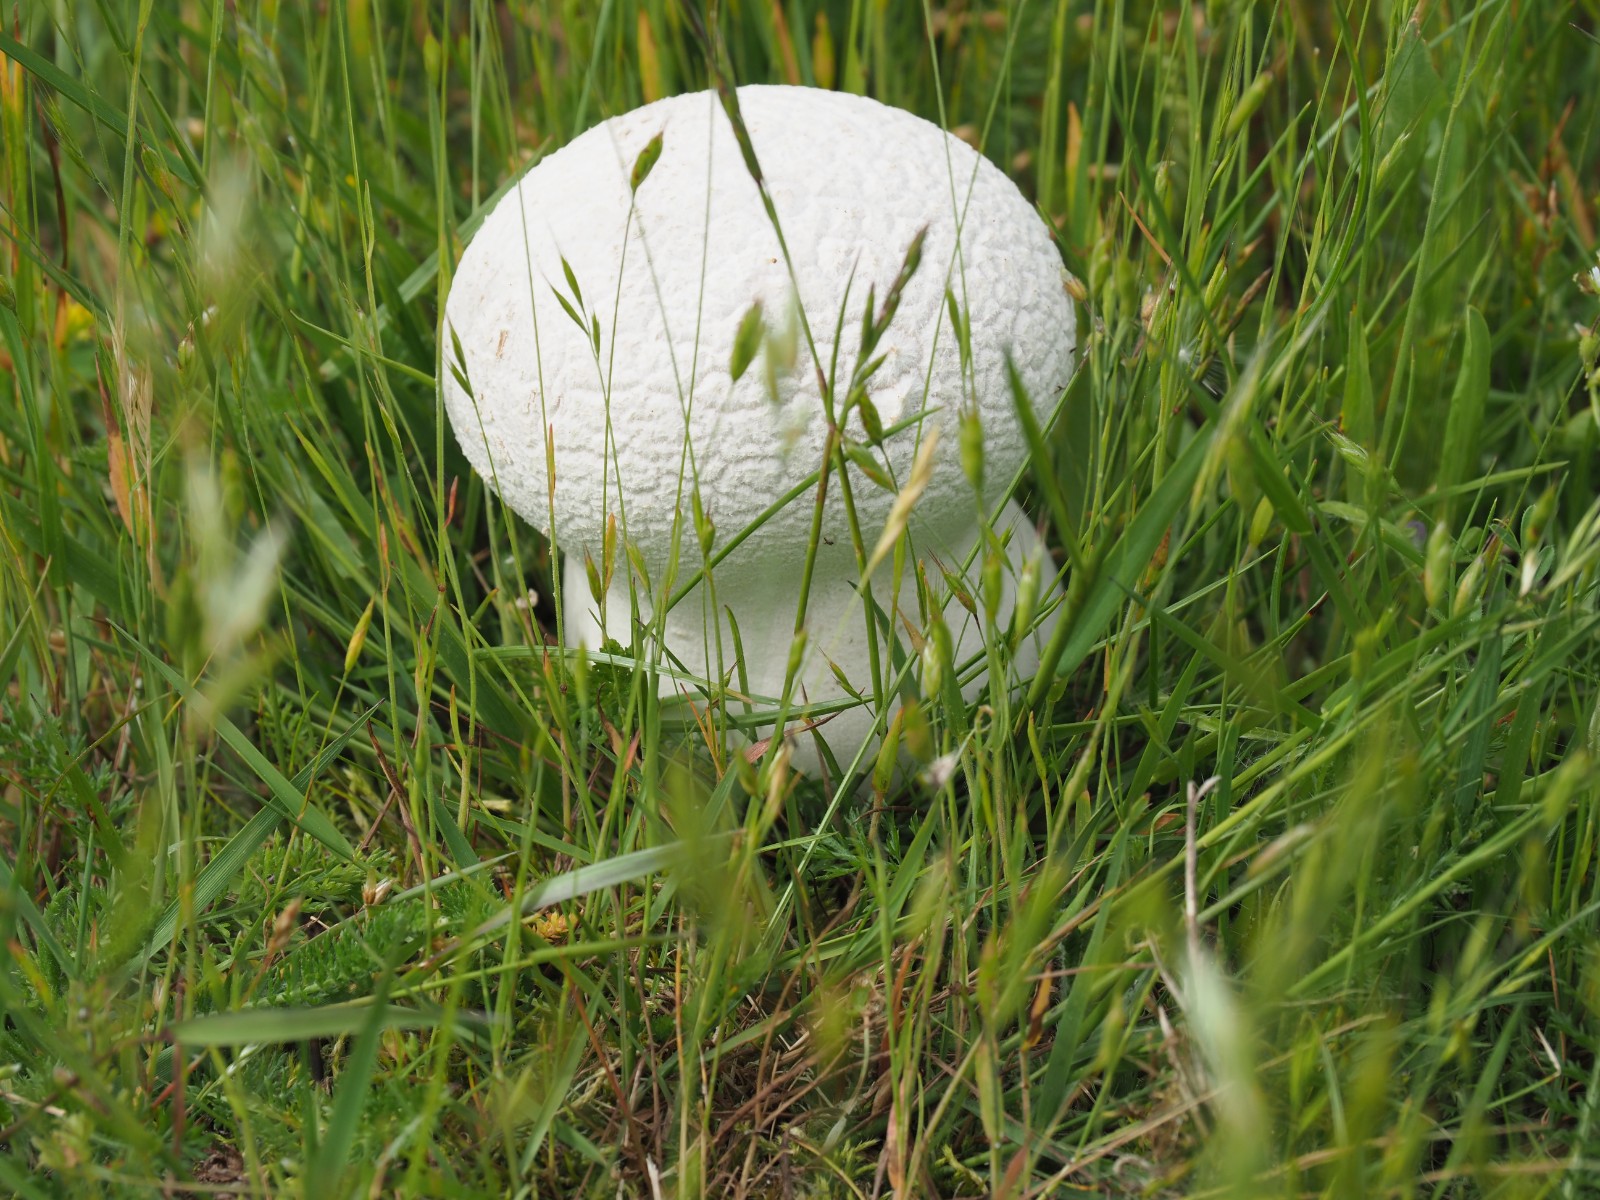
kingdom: Fungi
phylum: Basidiomycota
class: Agaricomycetes
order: Agaricales
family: Lycoperdaceae
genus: Bovistella
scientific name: Bovistella utriformis
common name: skællet støvbold
